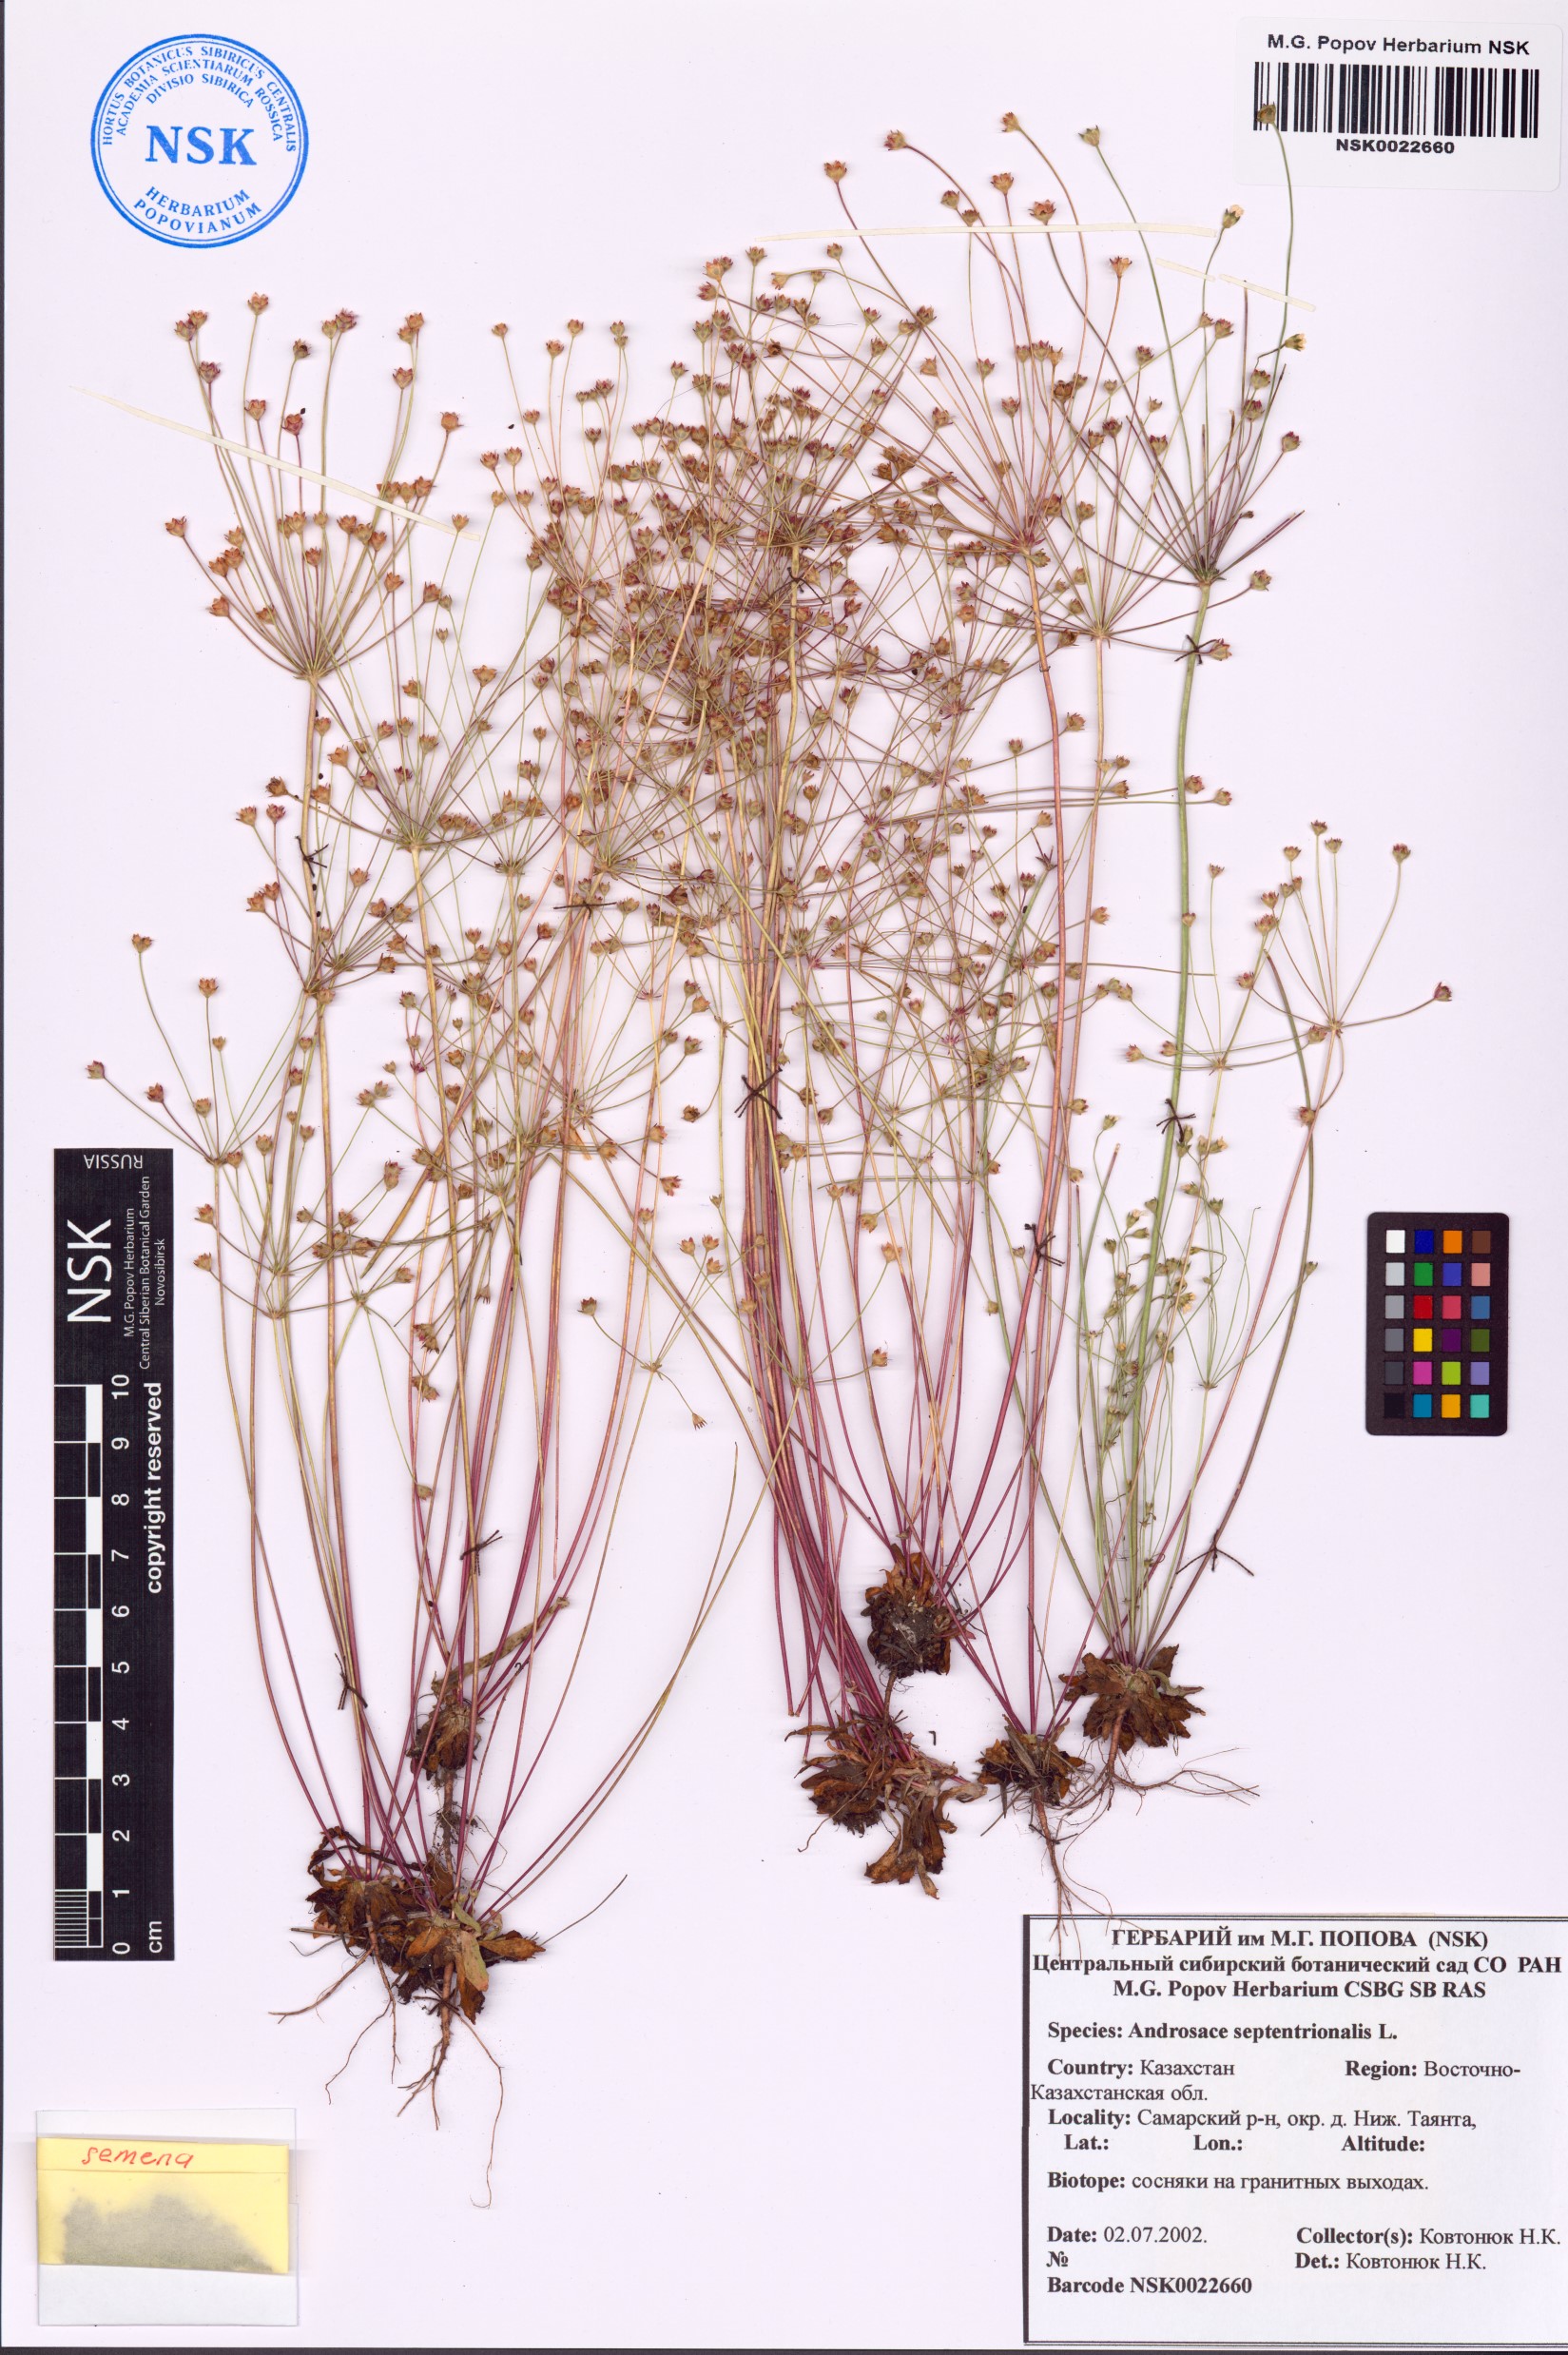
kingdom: Plantae
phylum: Tracheophyta
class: Magnoliopsida
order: Ericales
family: Primulaceae
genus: Androsace
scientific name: Androsace septentrionalis
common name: Hairy northern fairy-candelabra
